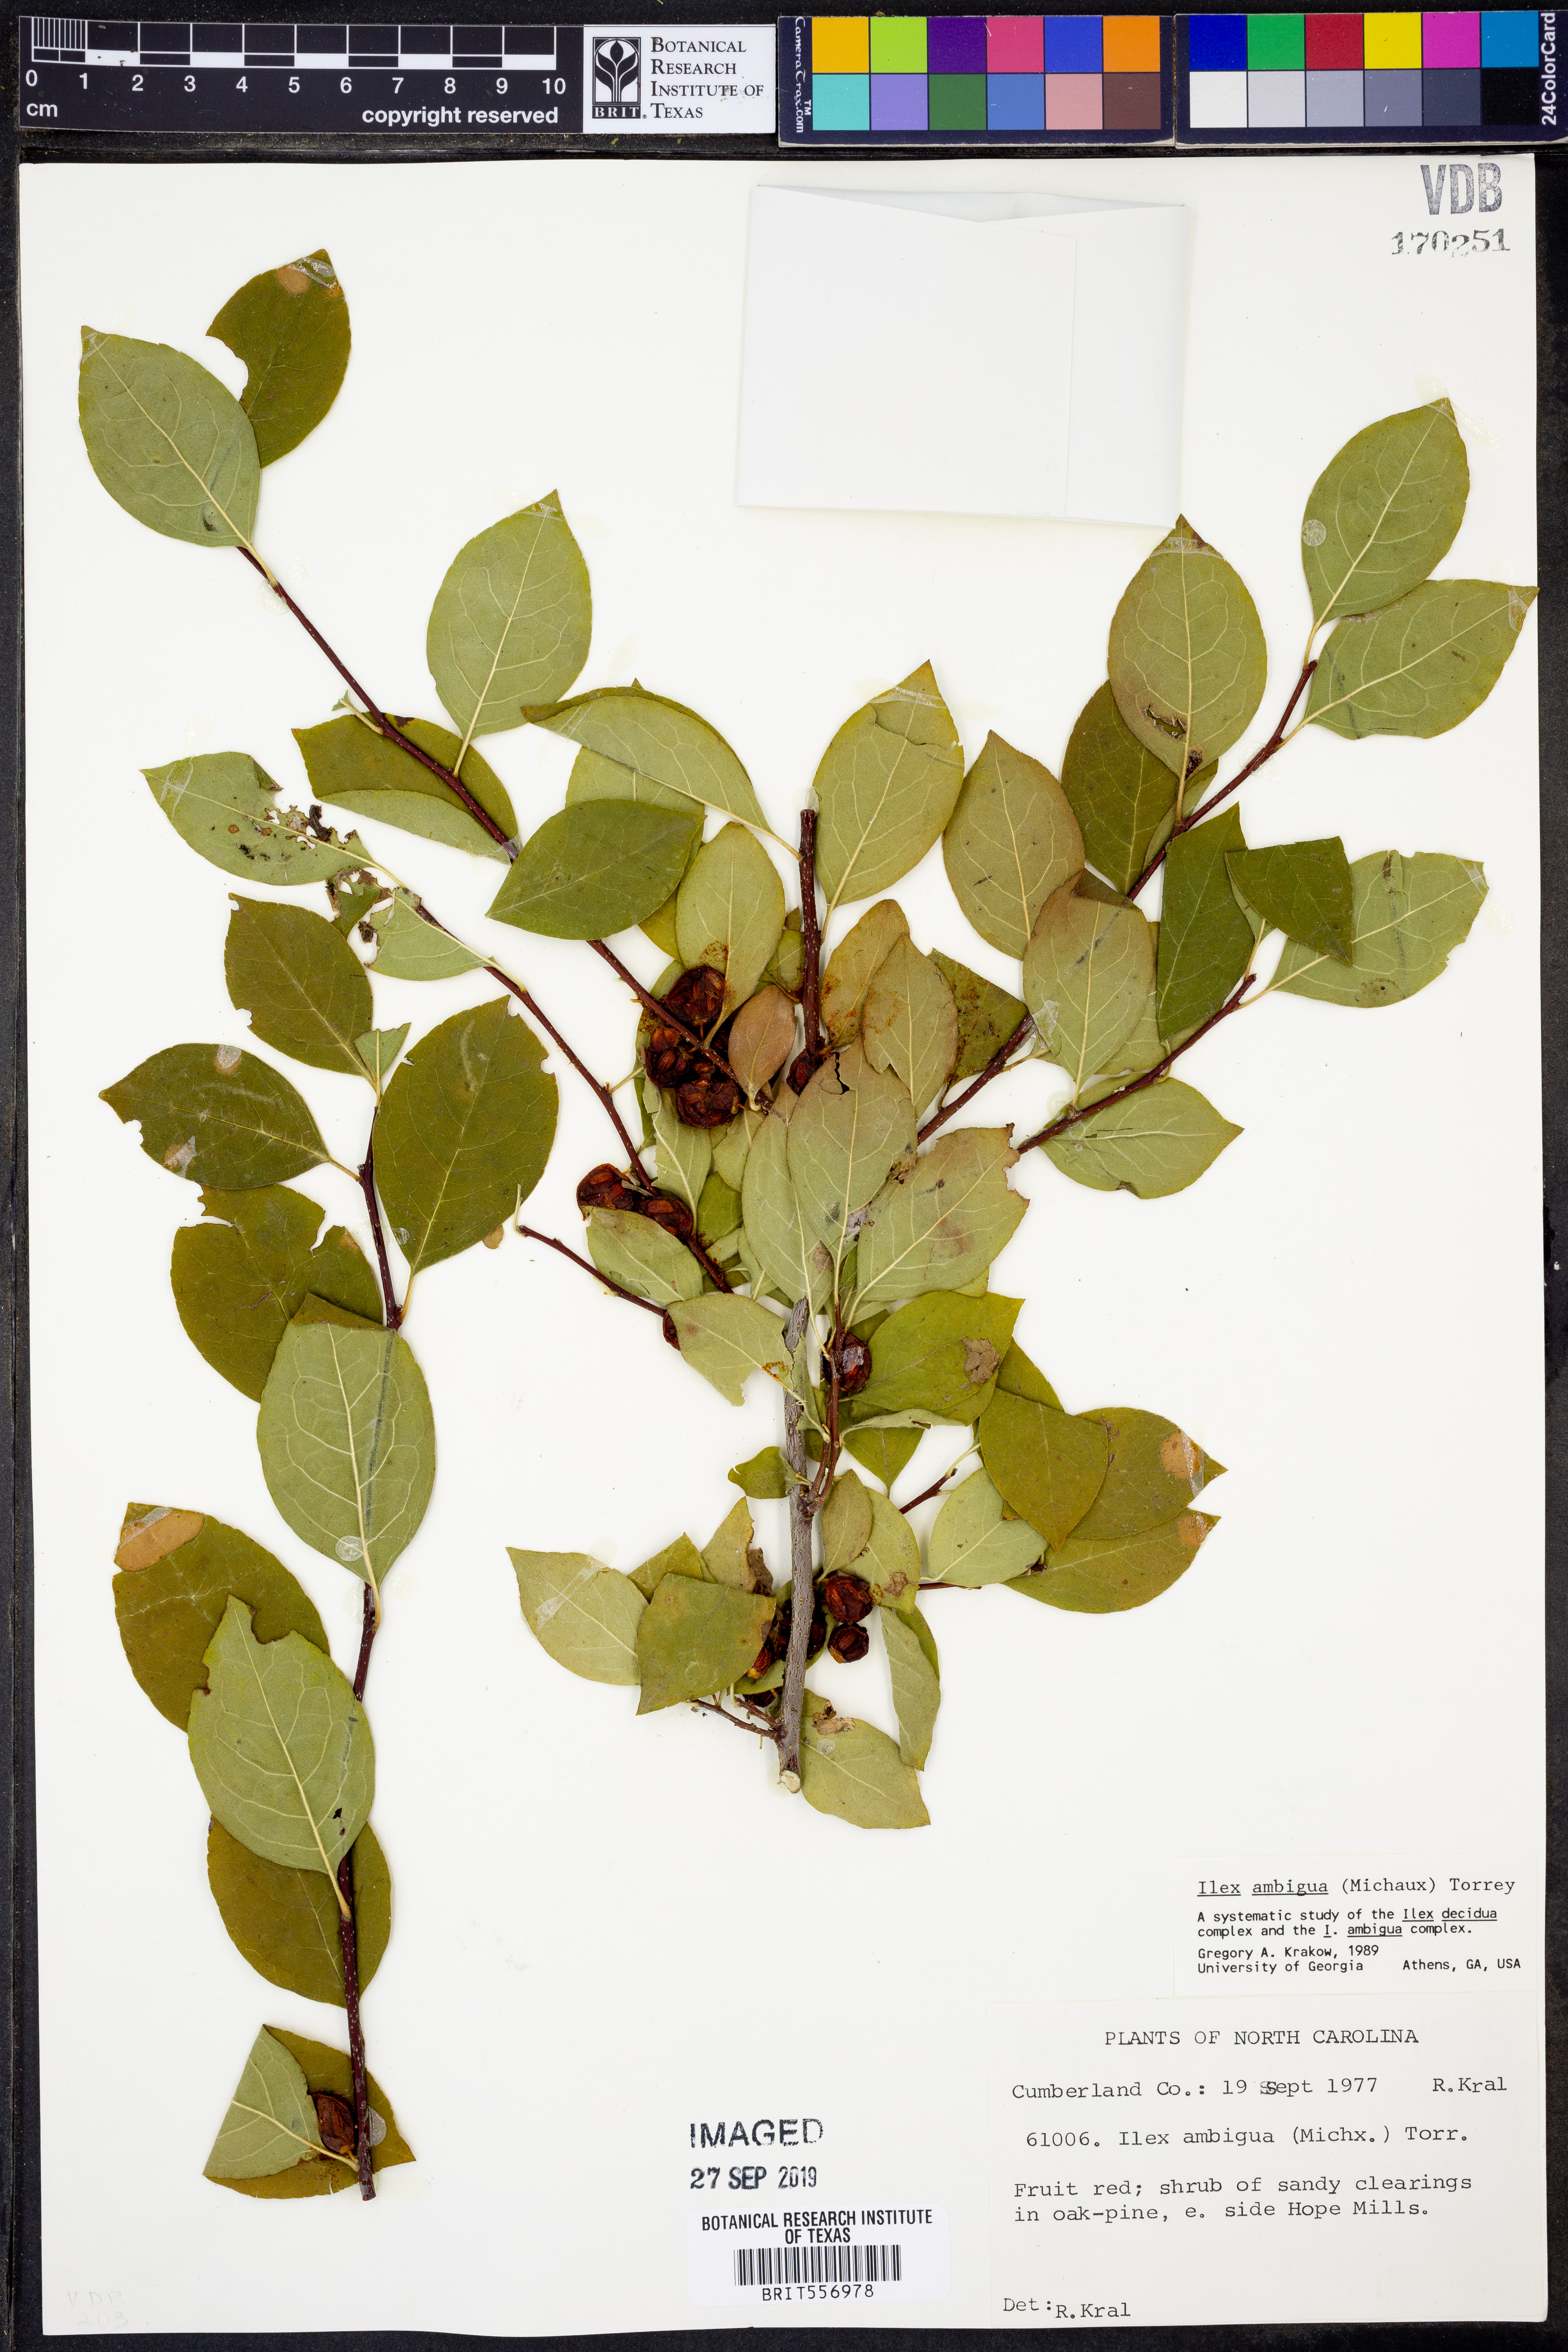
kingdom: Plantae
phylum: Tracheophyta
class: Magnoliopsida
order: Aquifoliales
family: Aquifoliaceae
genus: Ilex
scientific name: Ilex ambigua
